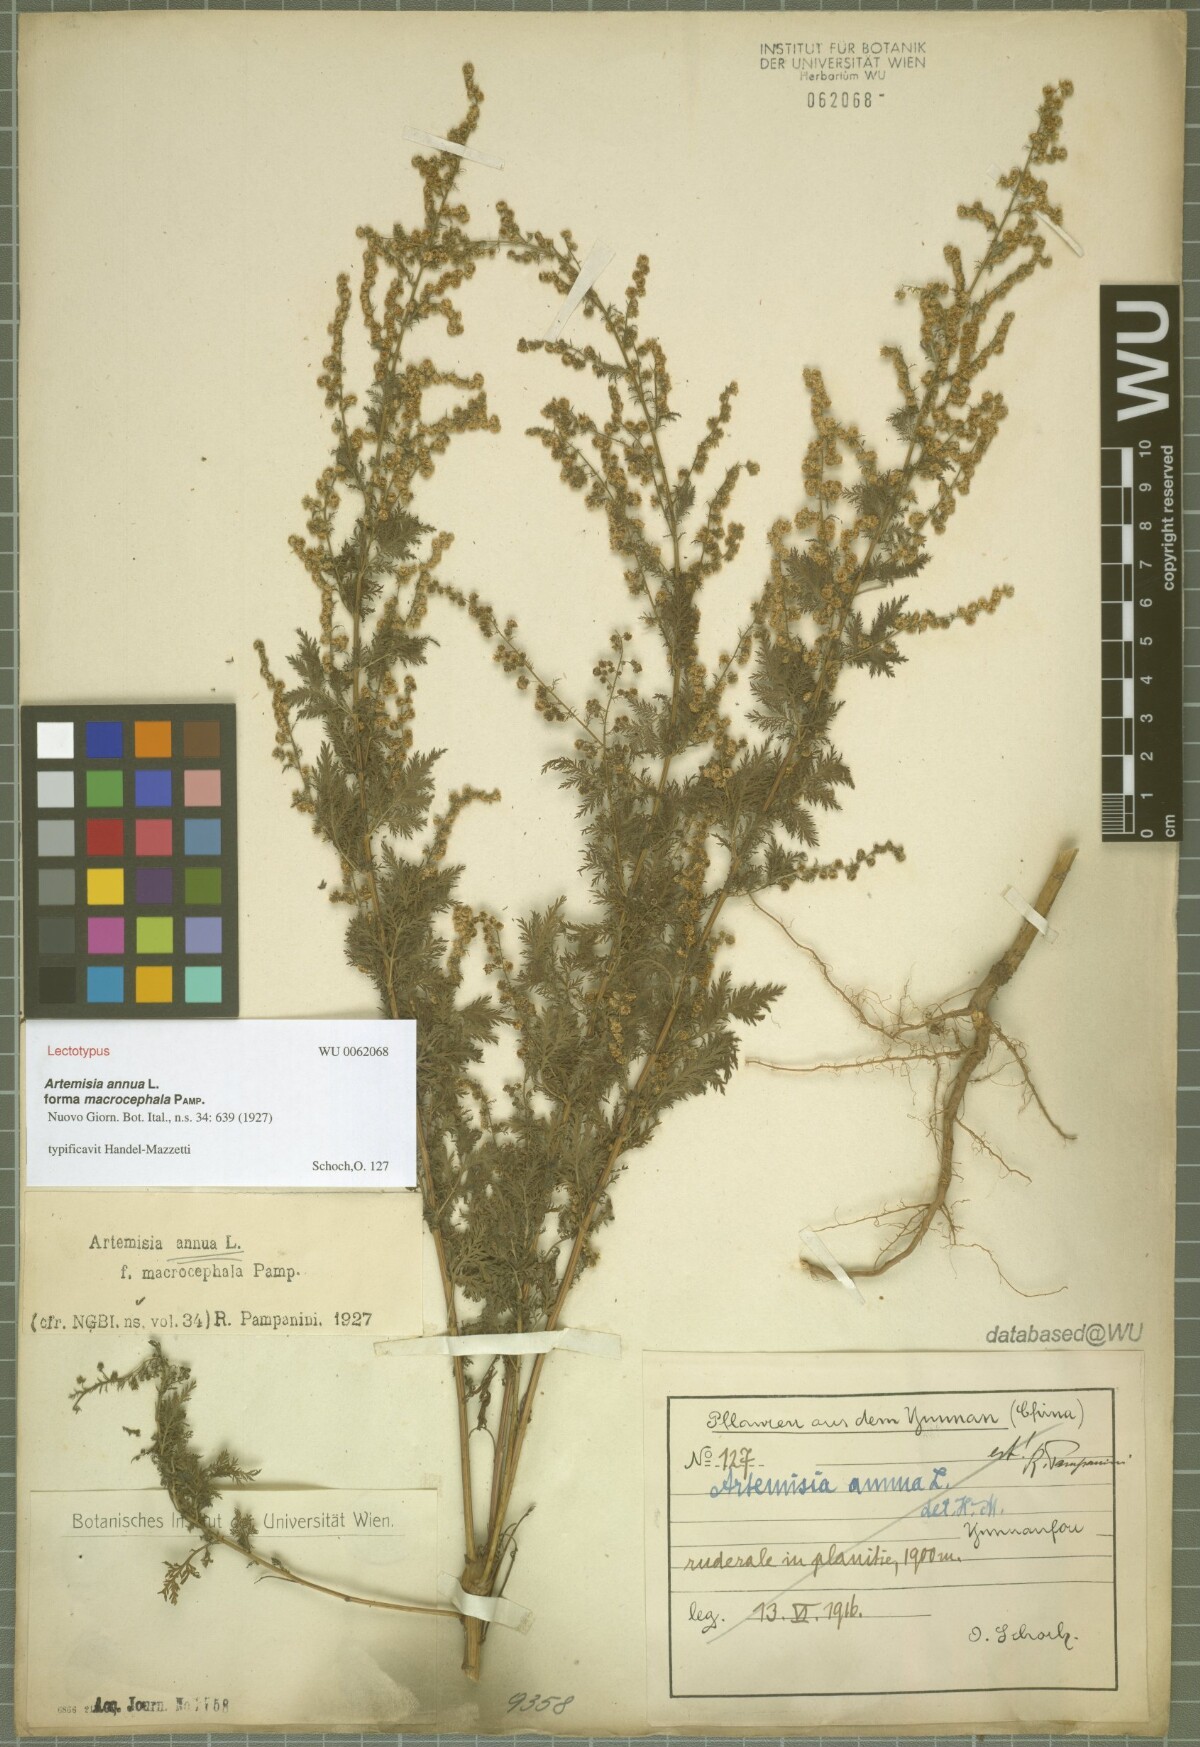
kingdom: Plantae
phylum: Tracheophyta
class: Magnoliopsida
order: Asterales
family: Asteraceae
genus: Artemisia
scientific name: Artemisia annua
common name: Sweet sagewort
